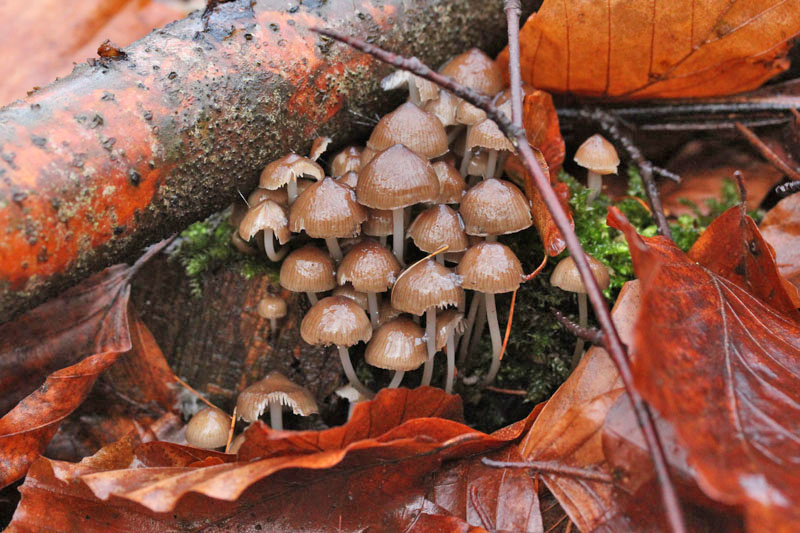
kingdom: Fungi
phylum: Basidiomycota
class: Agaricomycetes
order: Agaricales
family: Mycenaceae
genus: Mycena
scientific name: Mycena tintinnabulum
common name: vinter-huesvamp
